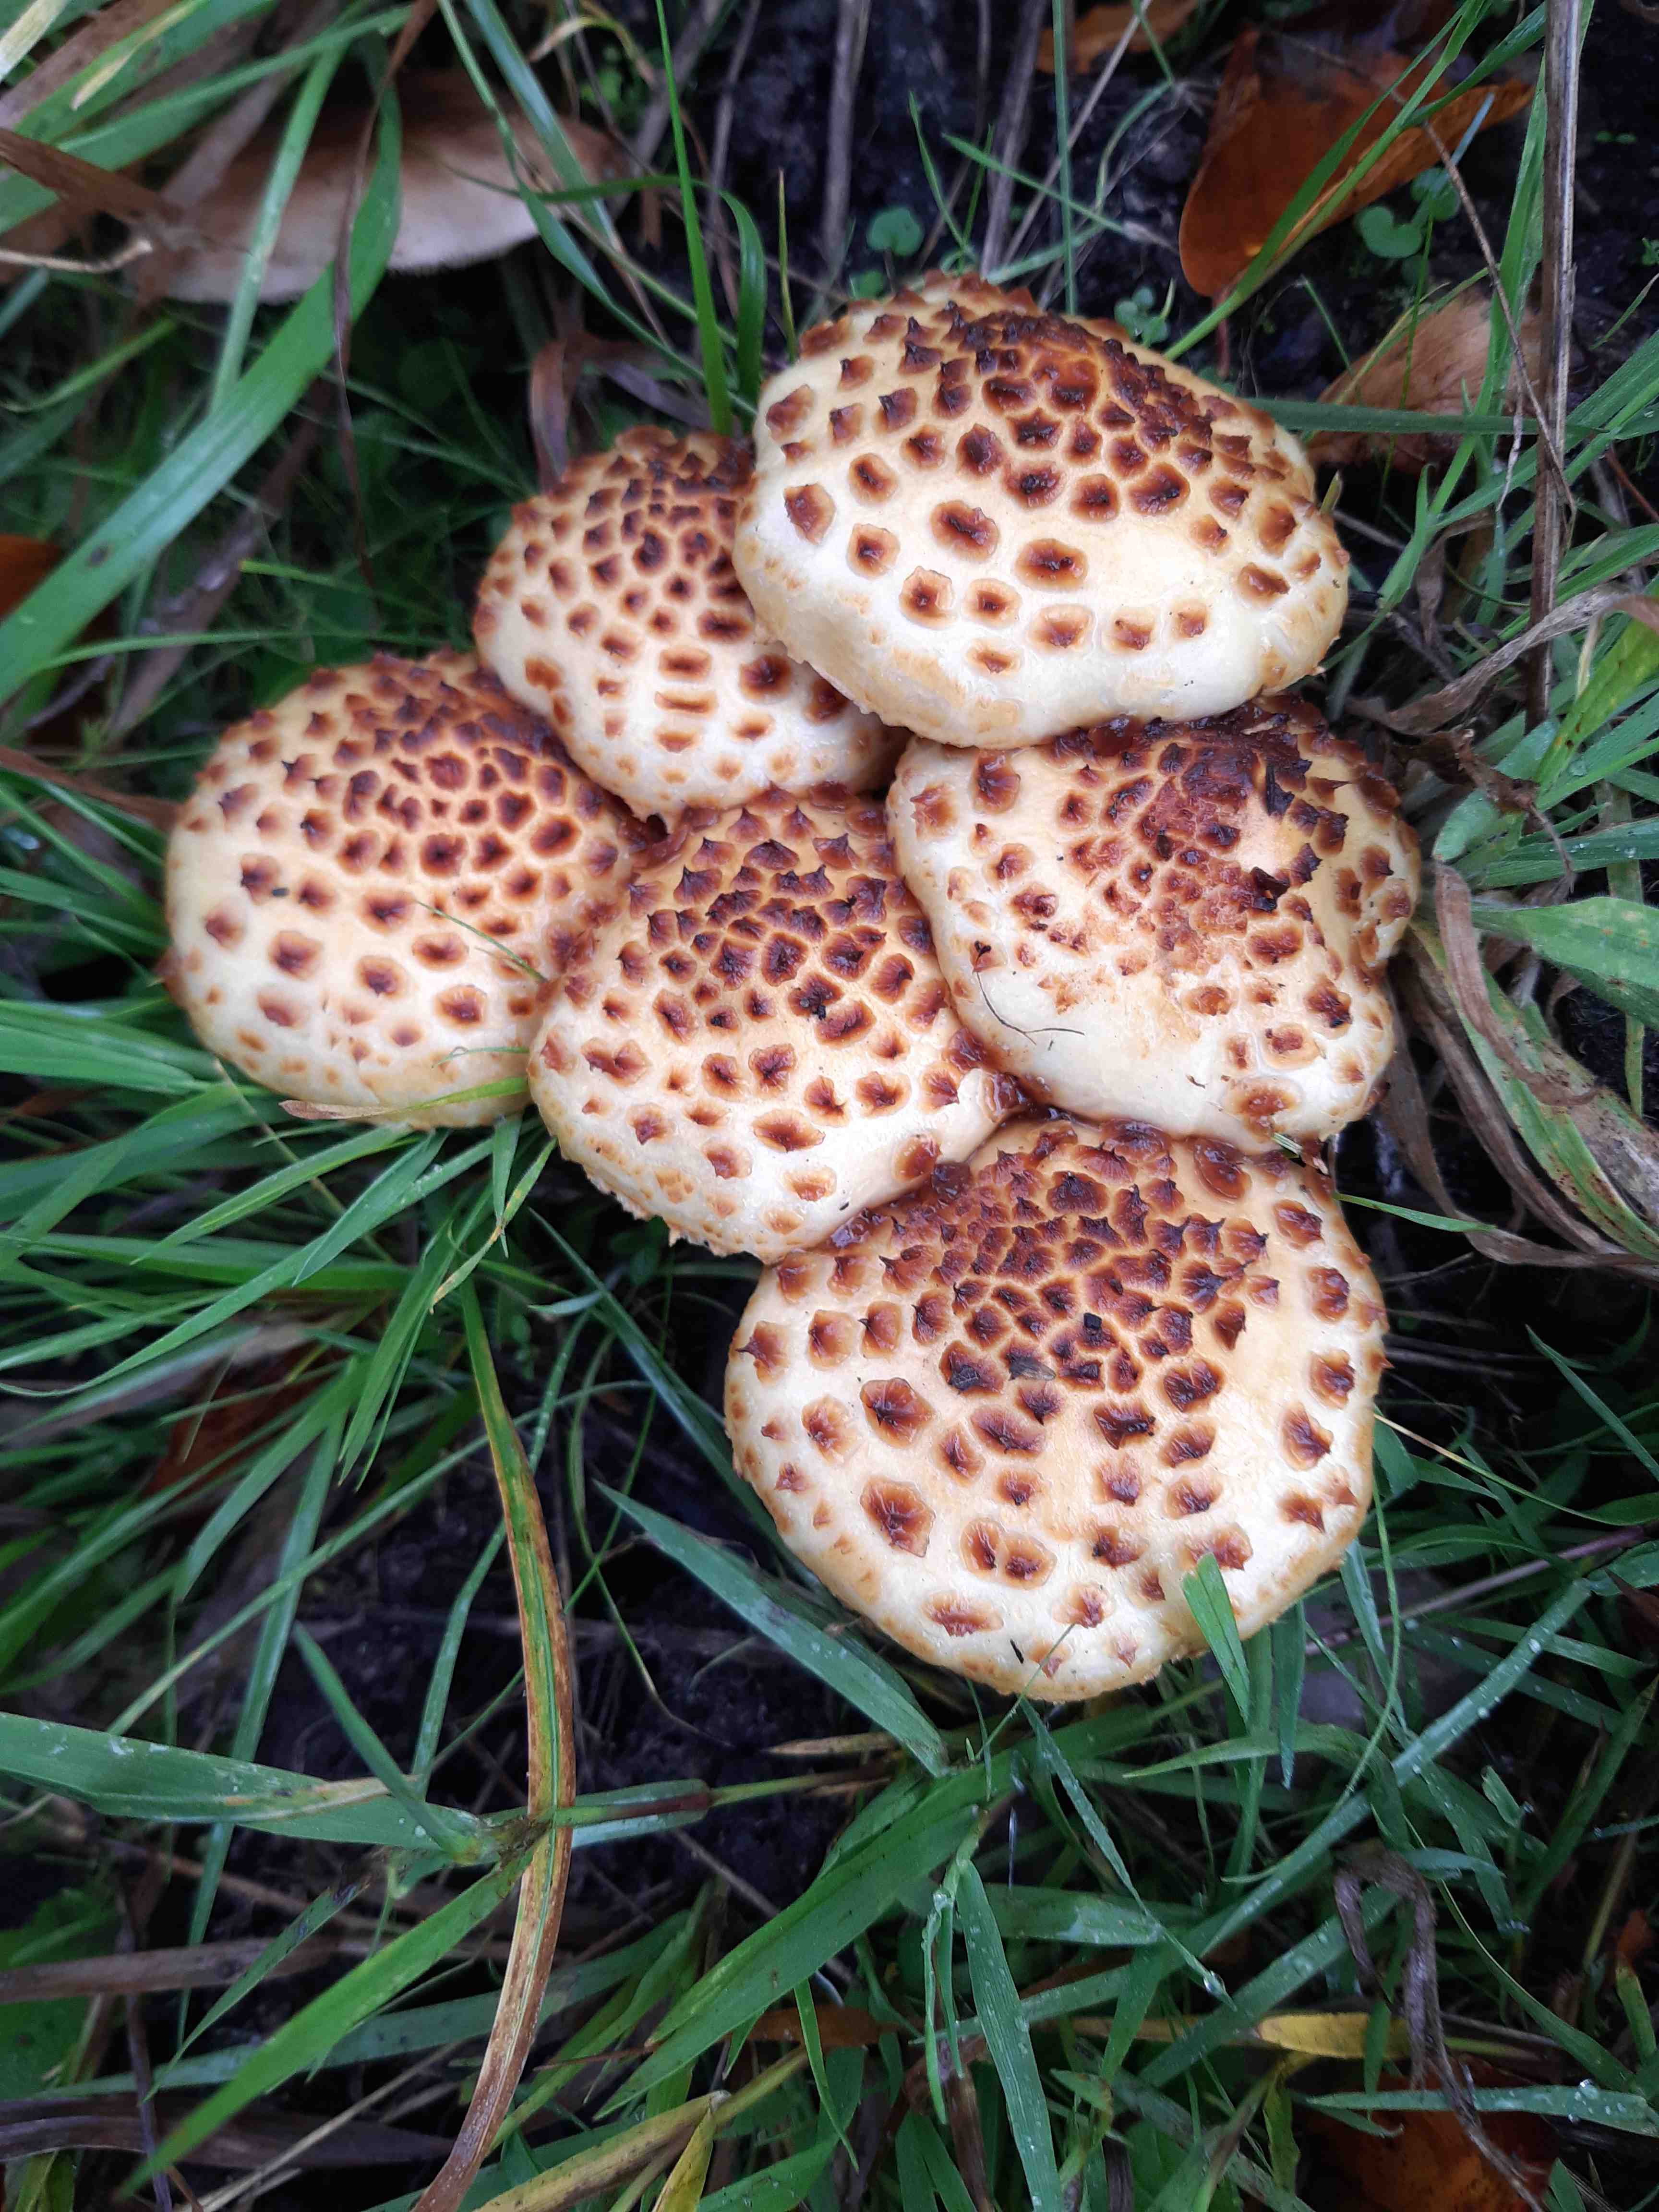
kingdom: Fungi
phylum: Basidiomycota
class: Agaricomycetes
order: Agaricales
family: Strophariaceae
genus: Pholiota
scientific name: Pholiota jahnii
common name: slimet skælhat
